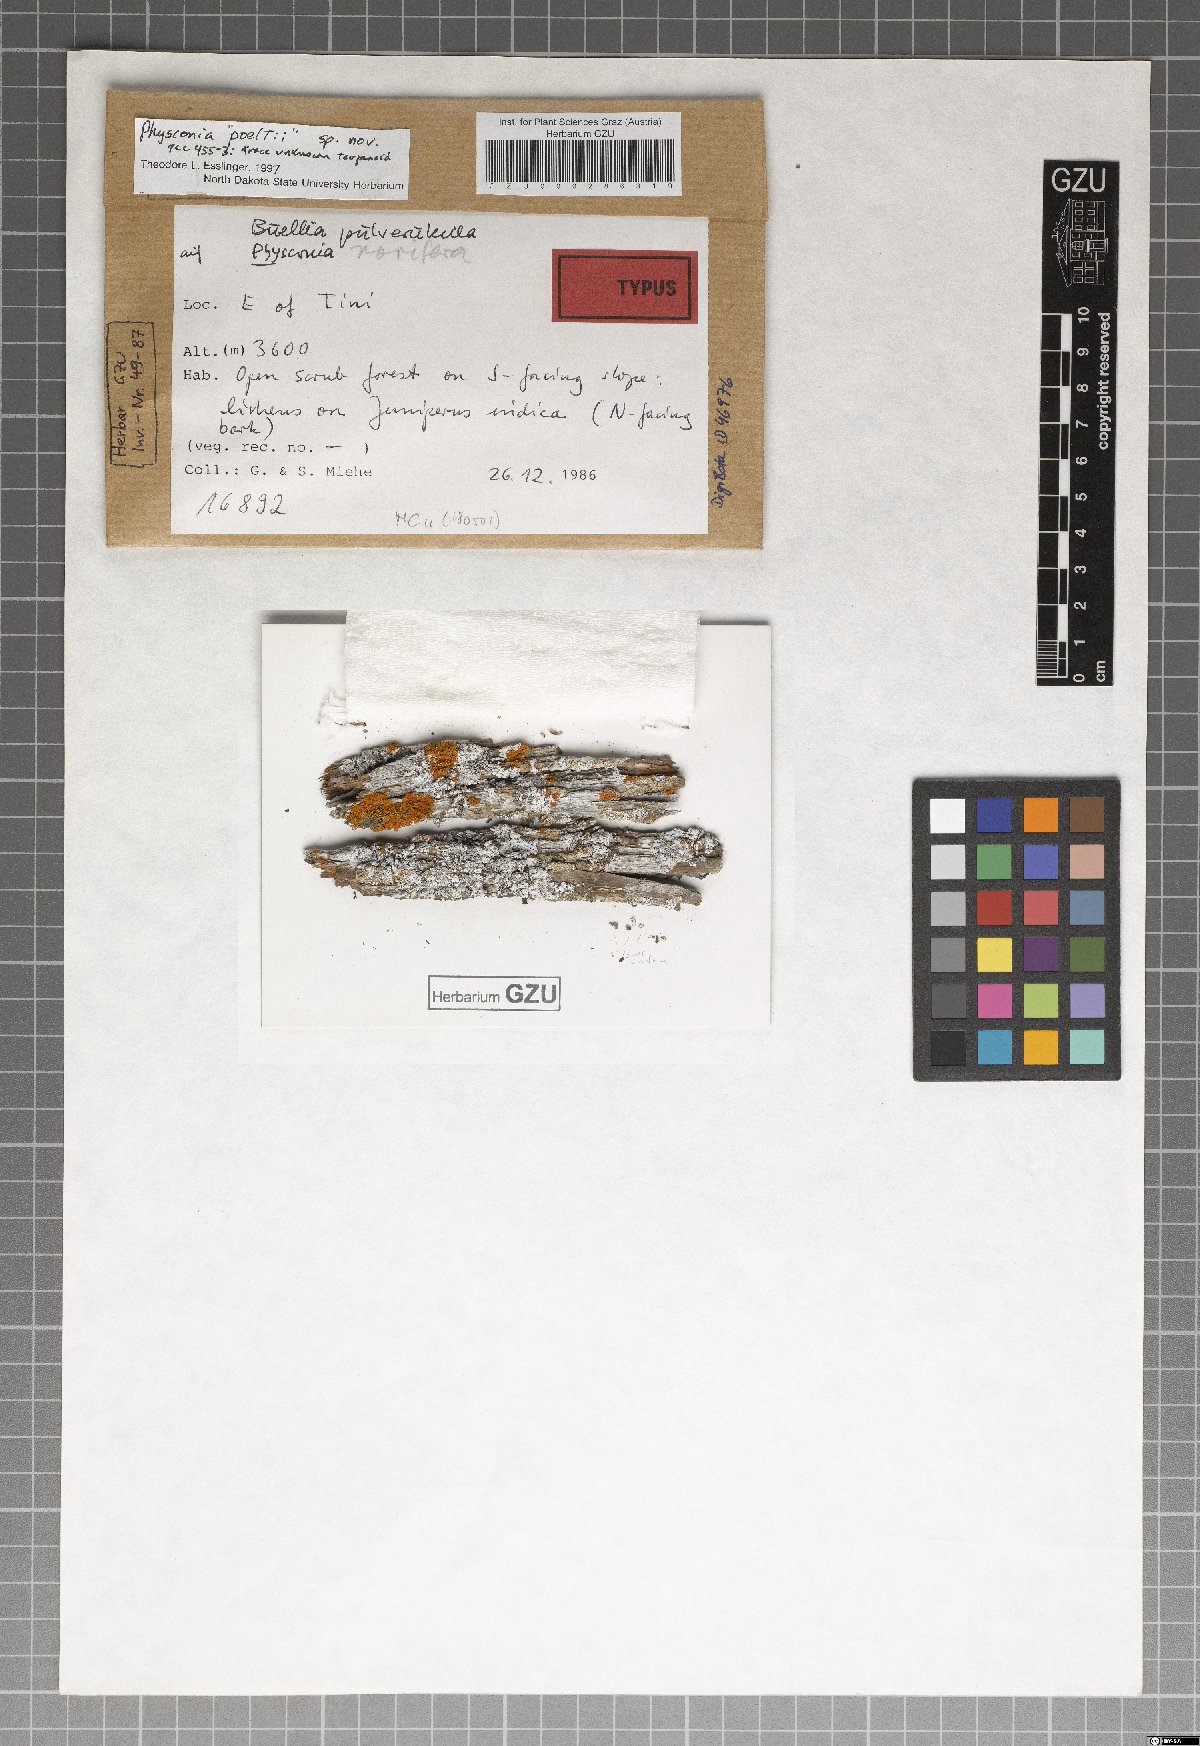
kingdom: Fungi
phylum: Ascomycota
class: Lecanoromycetes
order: Caliciales
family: Physciaceae
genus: Physconia
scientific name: Physconia
